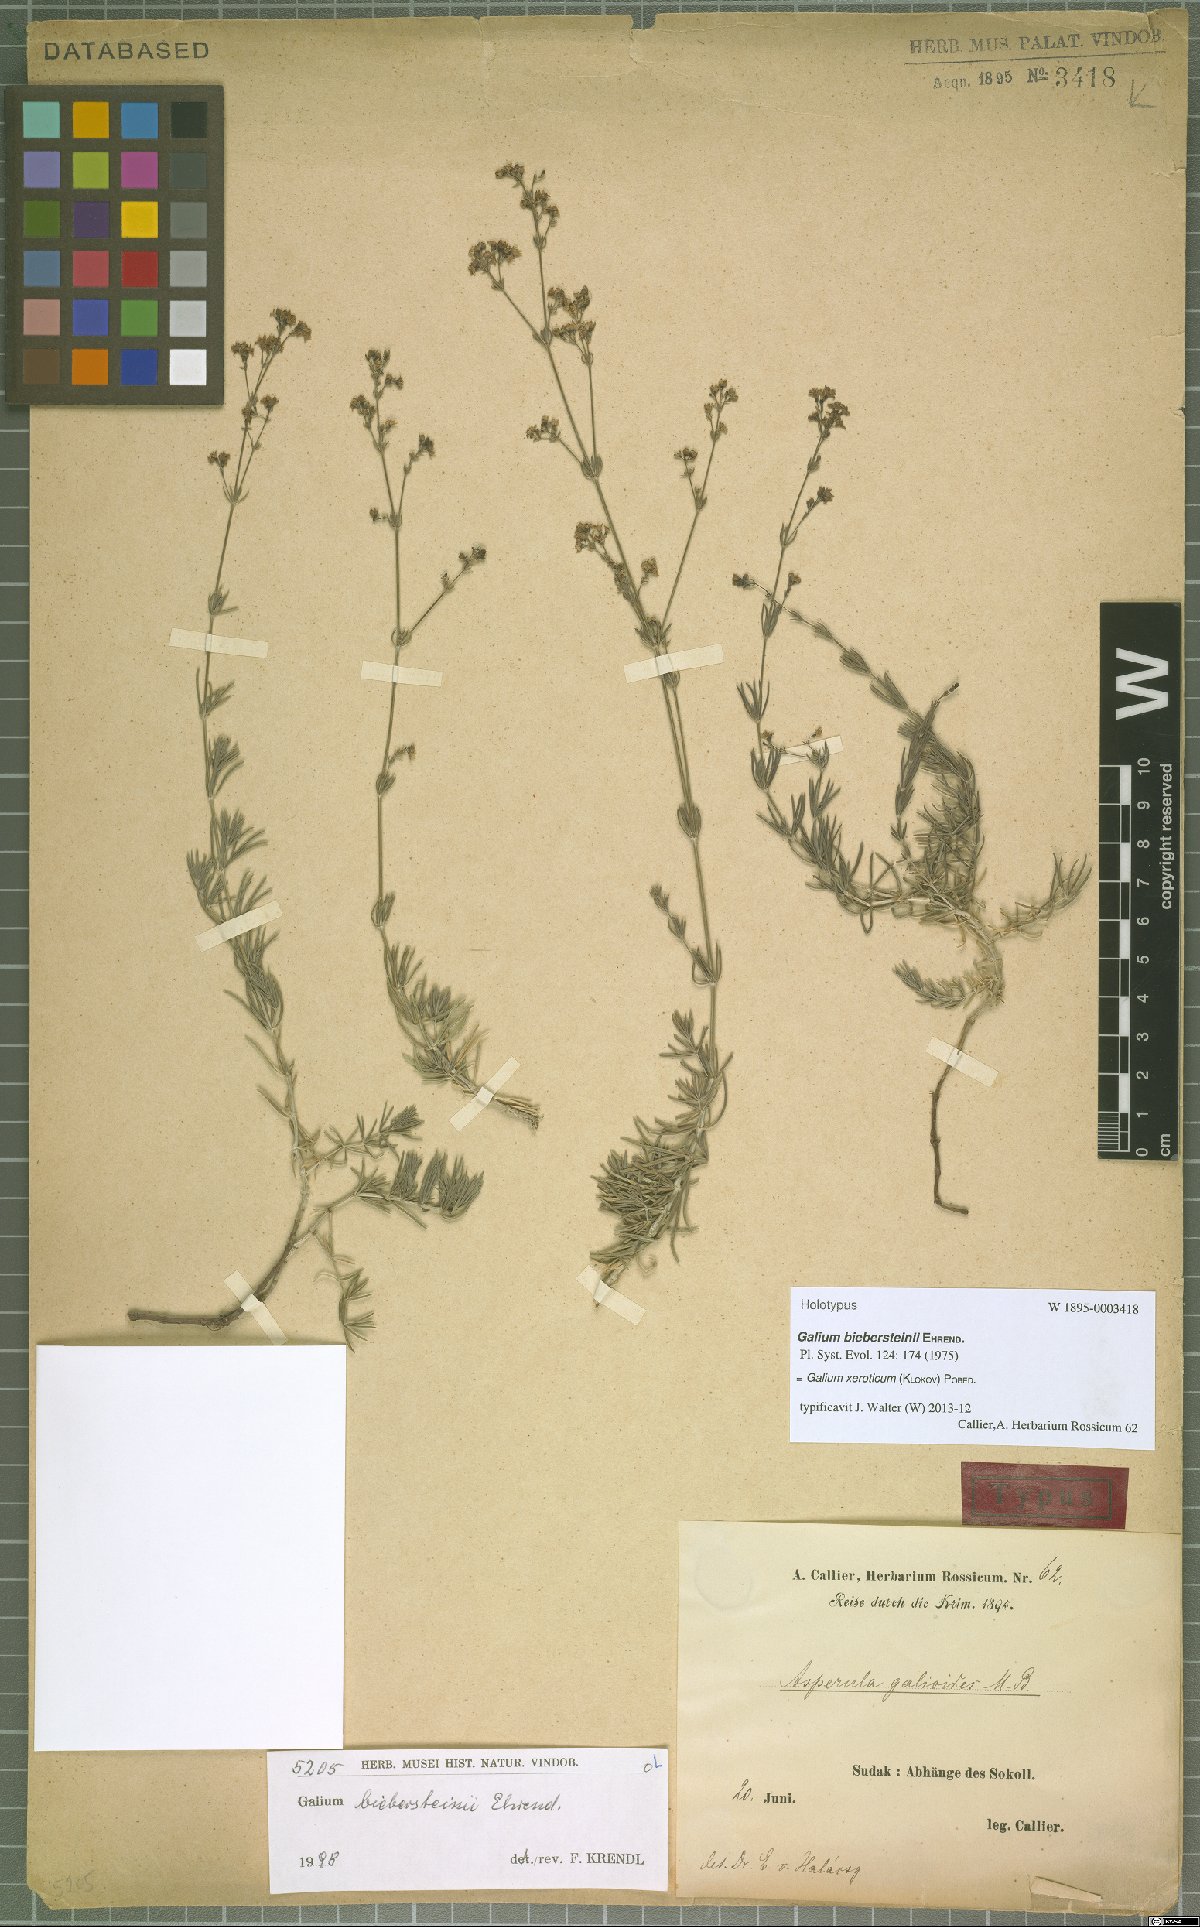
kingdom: Plantae
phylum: Tracheophyta
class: Magnoliopsida
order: Gentianales
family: Rubiaceae
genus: Galium
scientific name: Galium xeroticum
